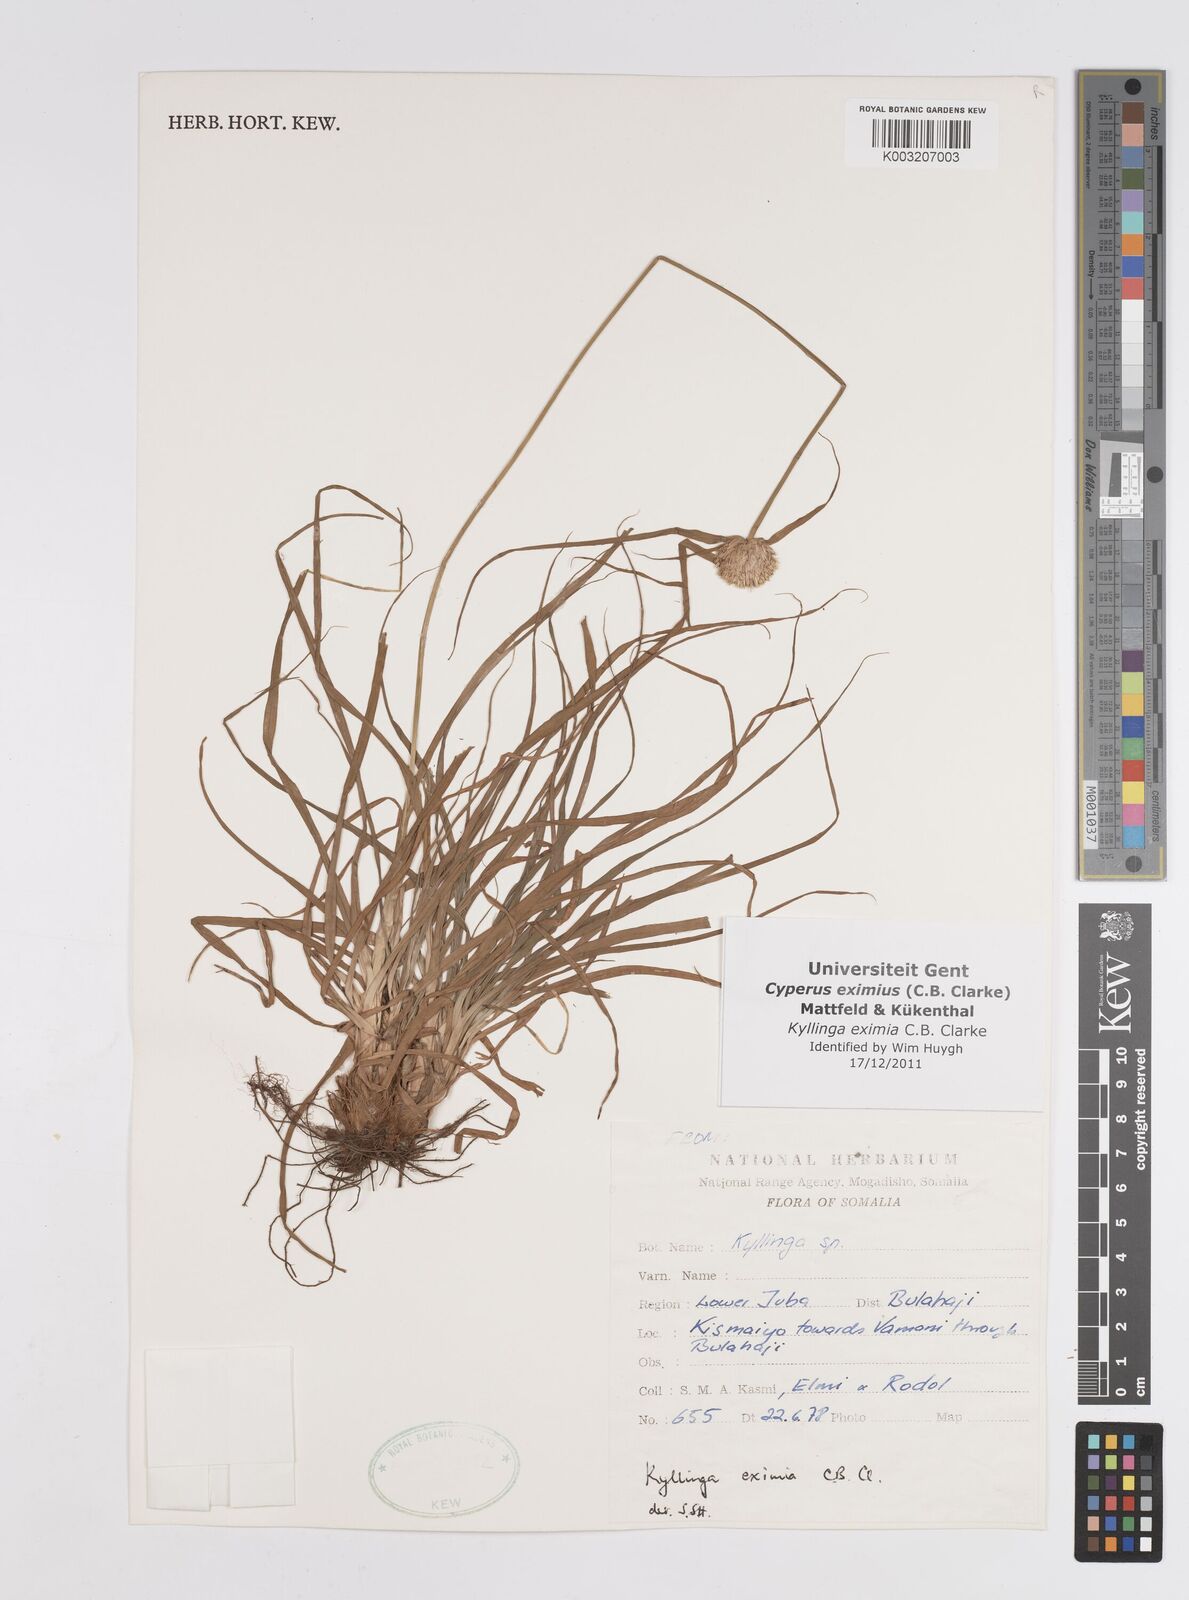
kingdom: Plantae
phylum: Tracheophyta
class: Liliopsida
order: Poales
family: Cyperaceae
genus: Cyperus
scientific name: Cyperus eximius
